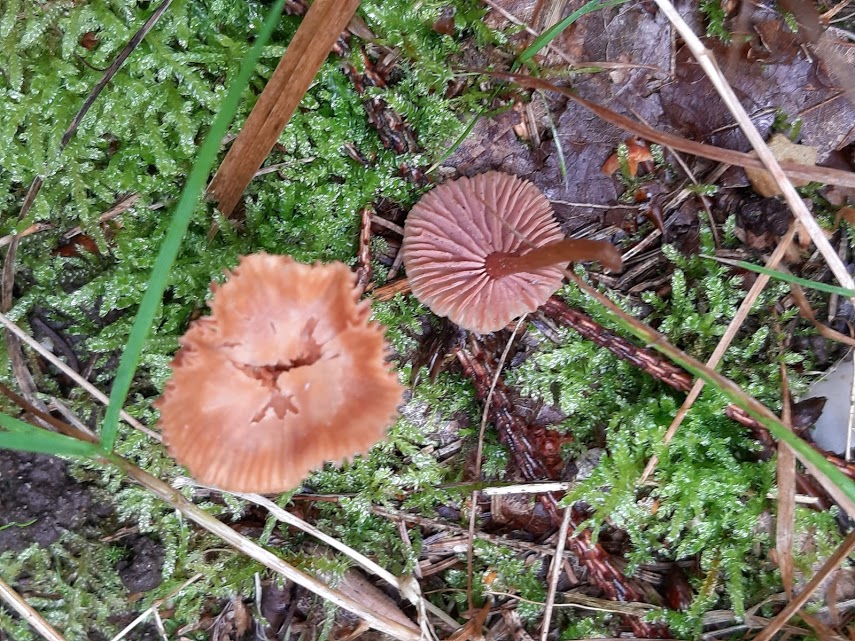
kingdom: Fungi
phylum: Basidiomycota
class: Agaricomycetes
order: Agaricales
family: Hydnangiaceae
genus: Laccaria
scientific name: Laccaria laccata
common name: rød ametysthat
